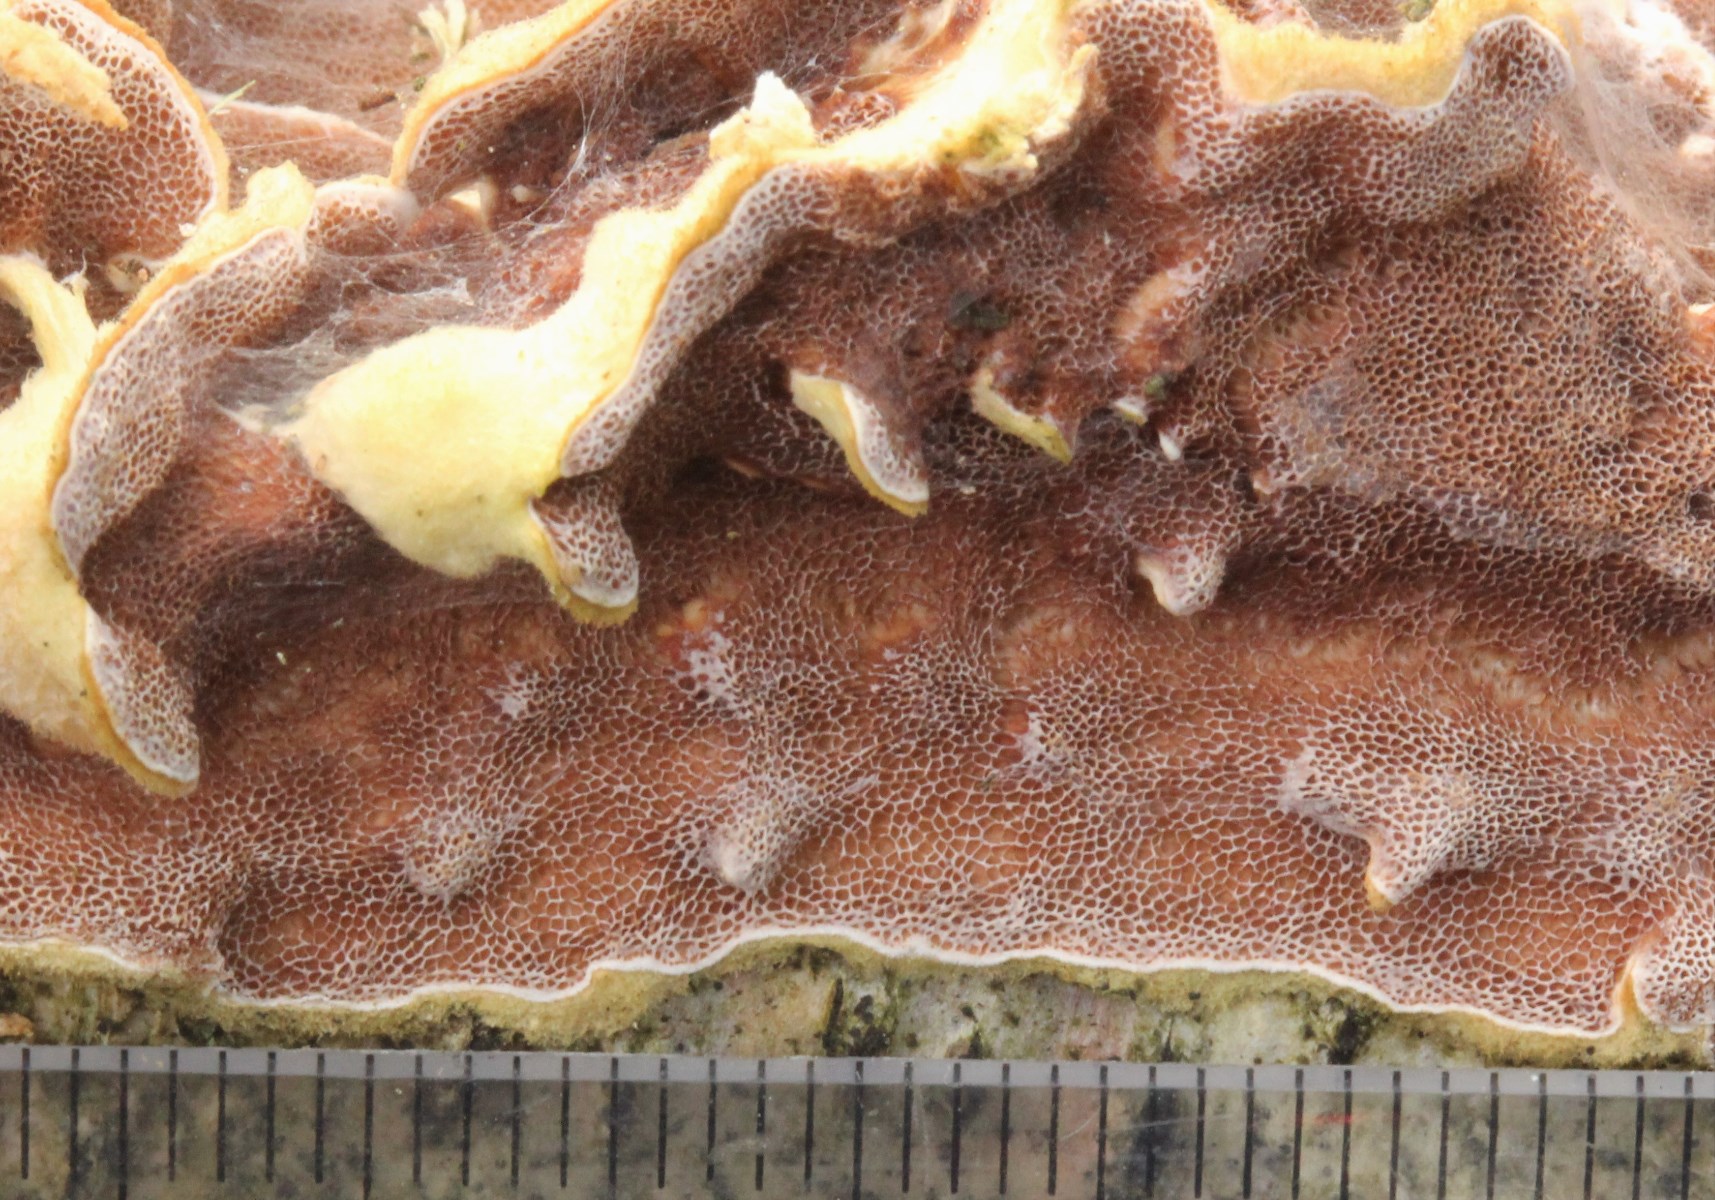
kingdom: Fungi
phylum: Basidiomycota
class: Agaricomycetes
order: Polyporales
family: Irpicaceae
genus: Vitreoporus
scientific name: Vitreoporus dichrous
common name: tofarvet foldporesvamp
